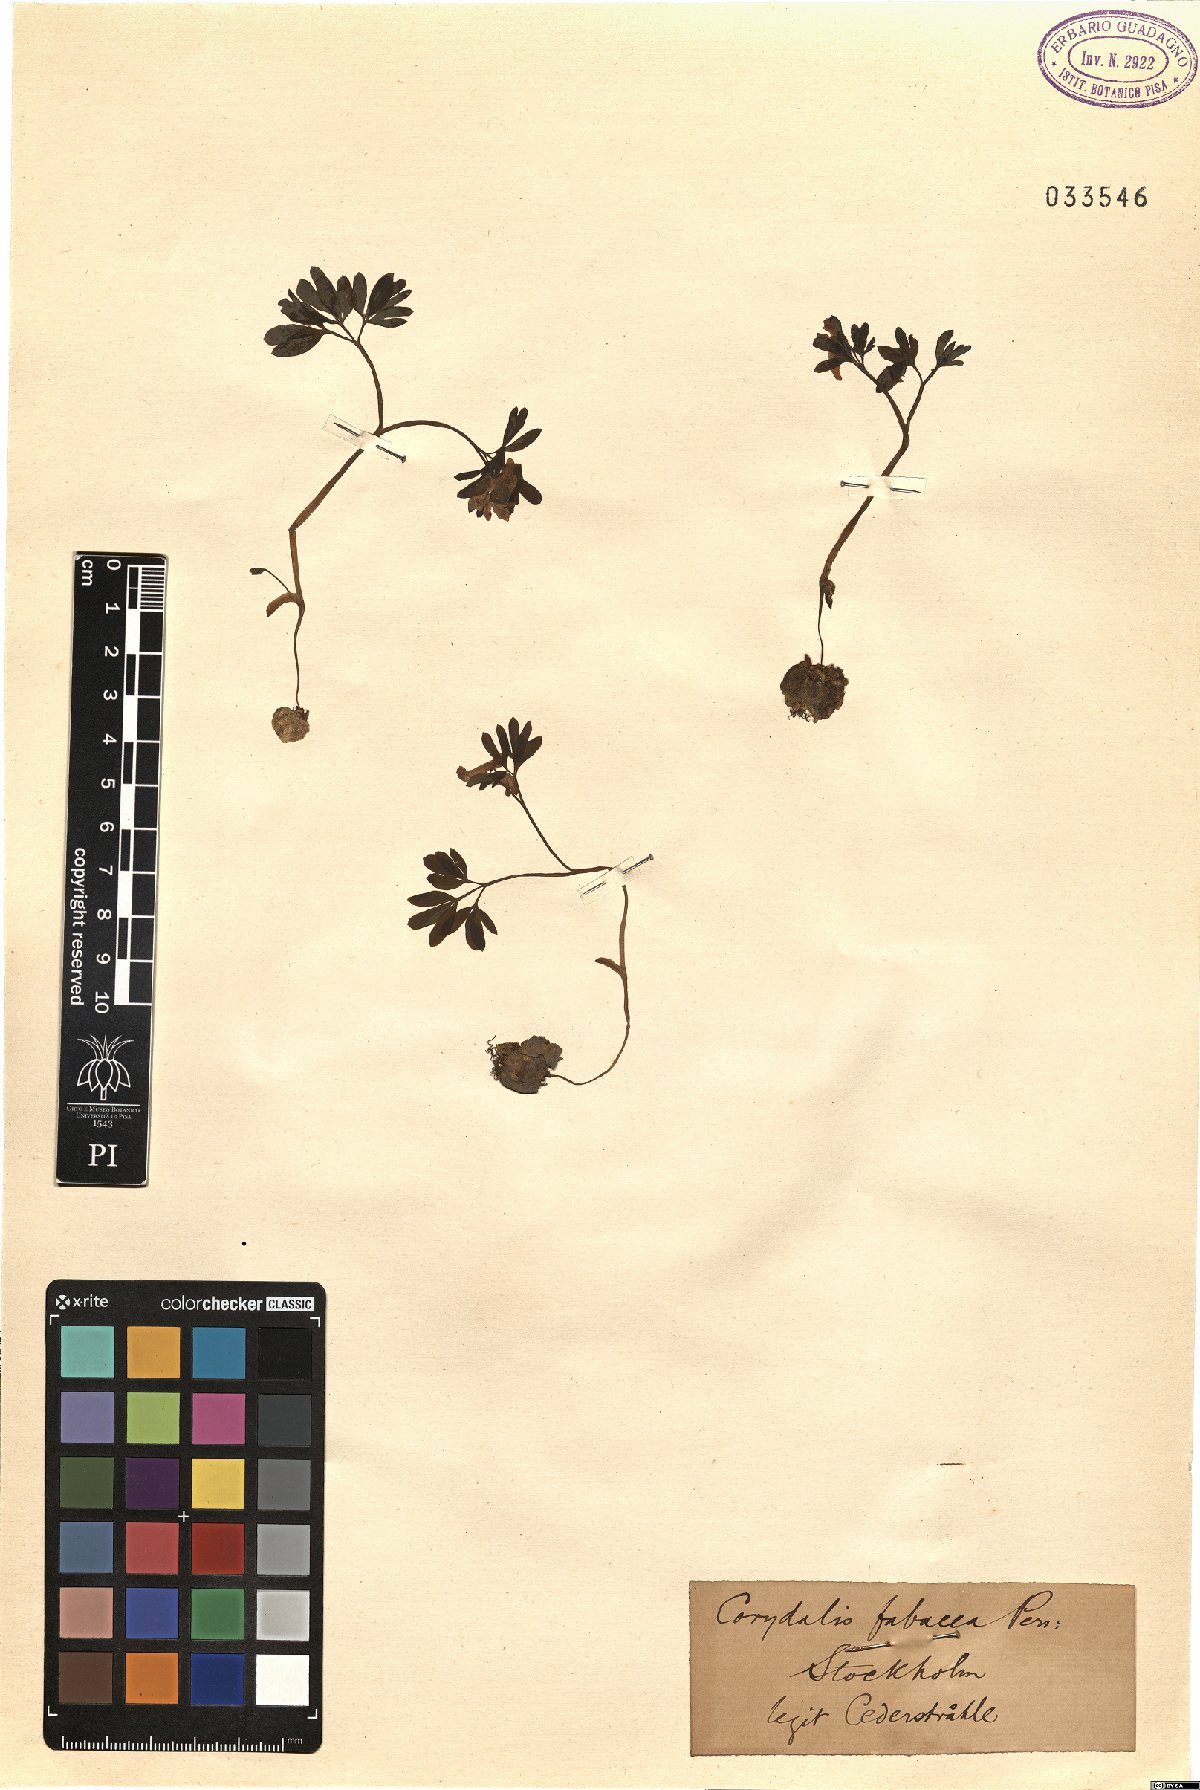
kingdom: Plantae
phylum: Tracheophyta
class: Magnoliopsida
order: Ranunculales
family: Papaveraceae
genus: Corydalis
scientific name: Corydalis intermedia
